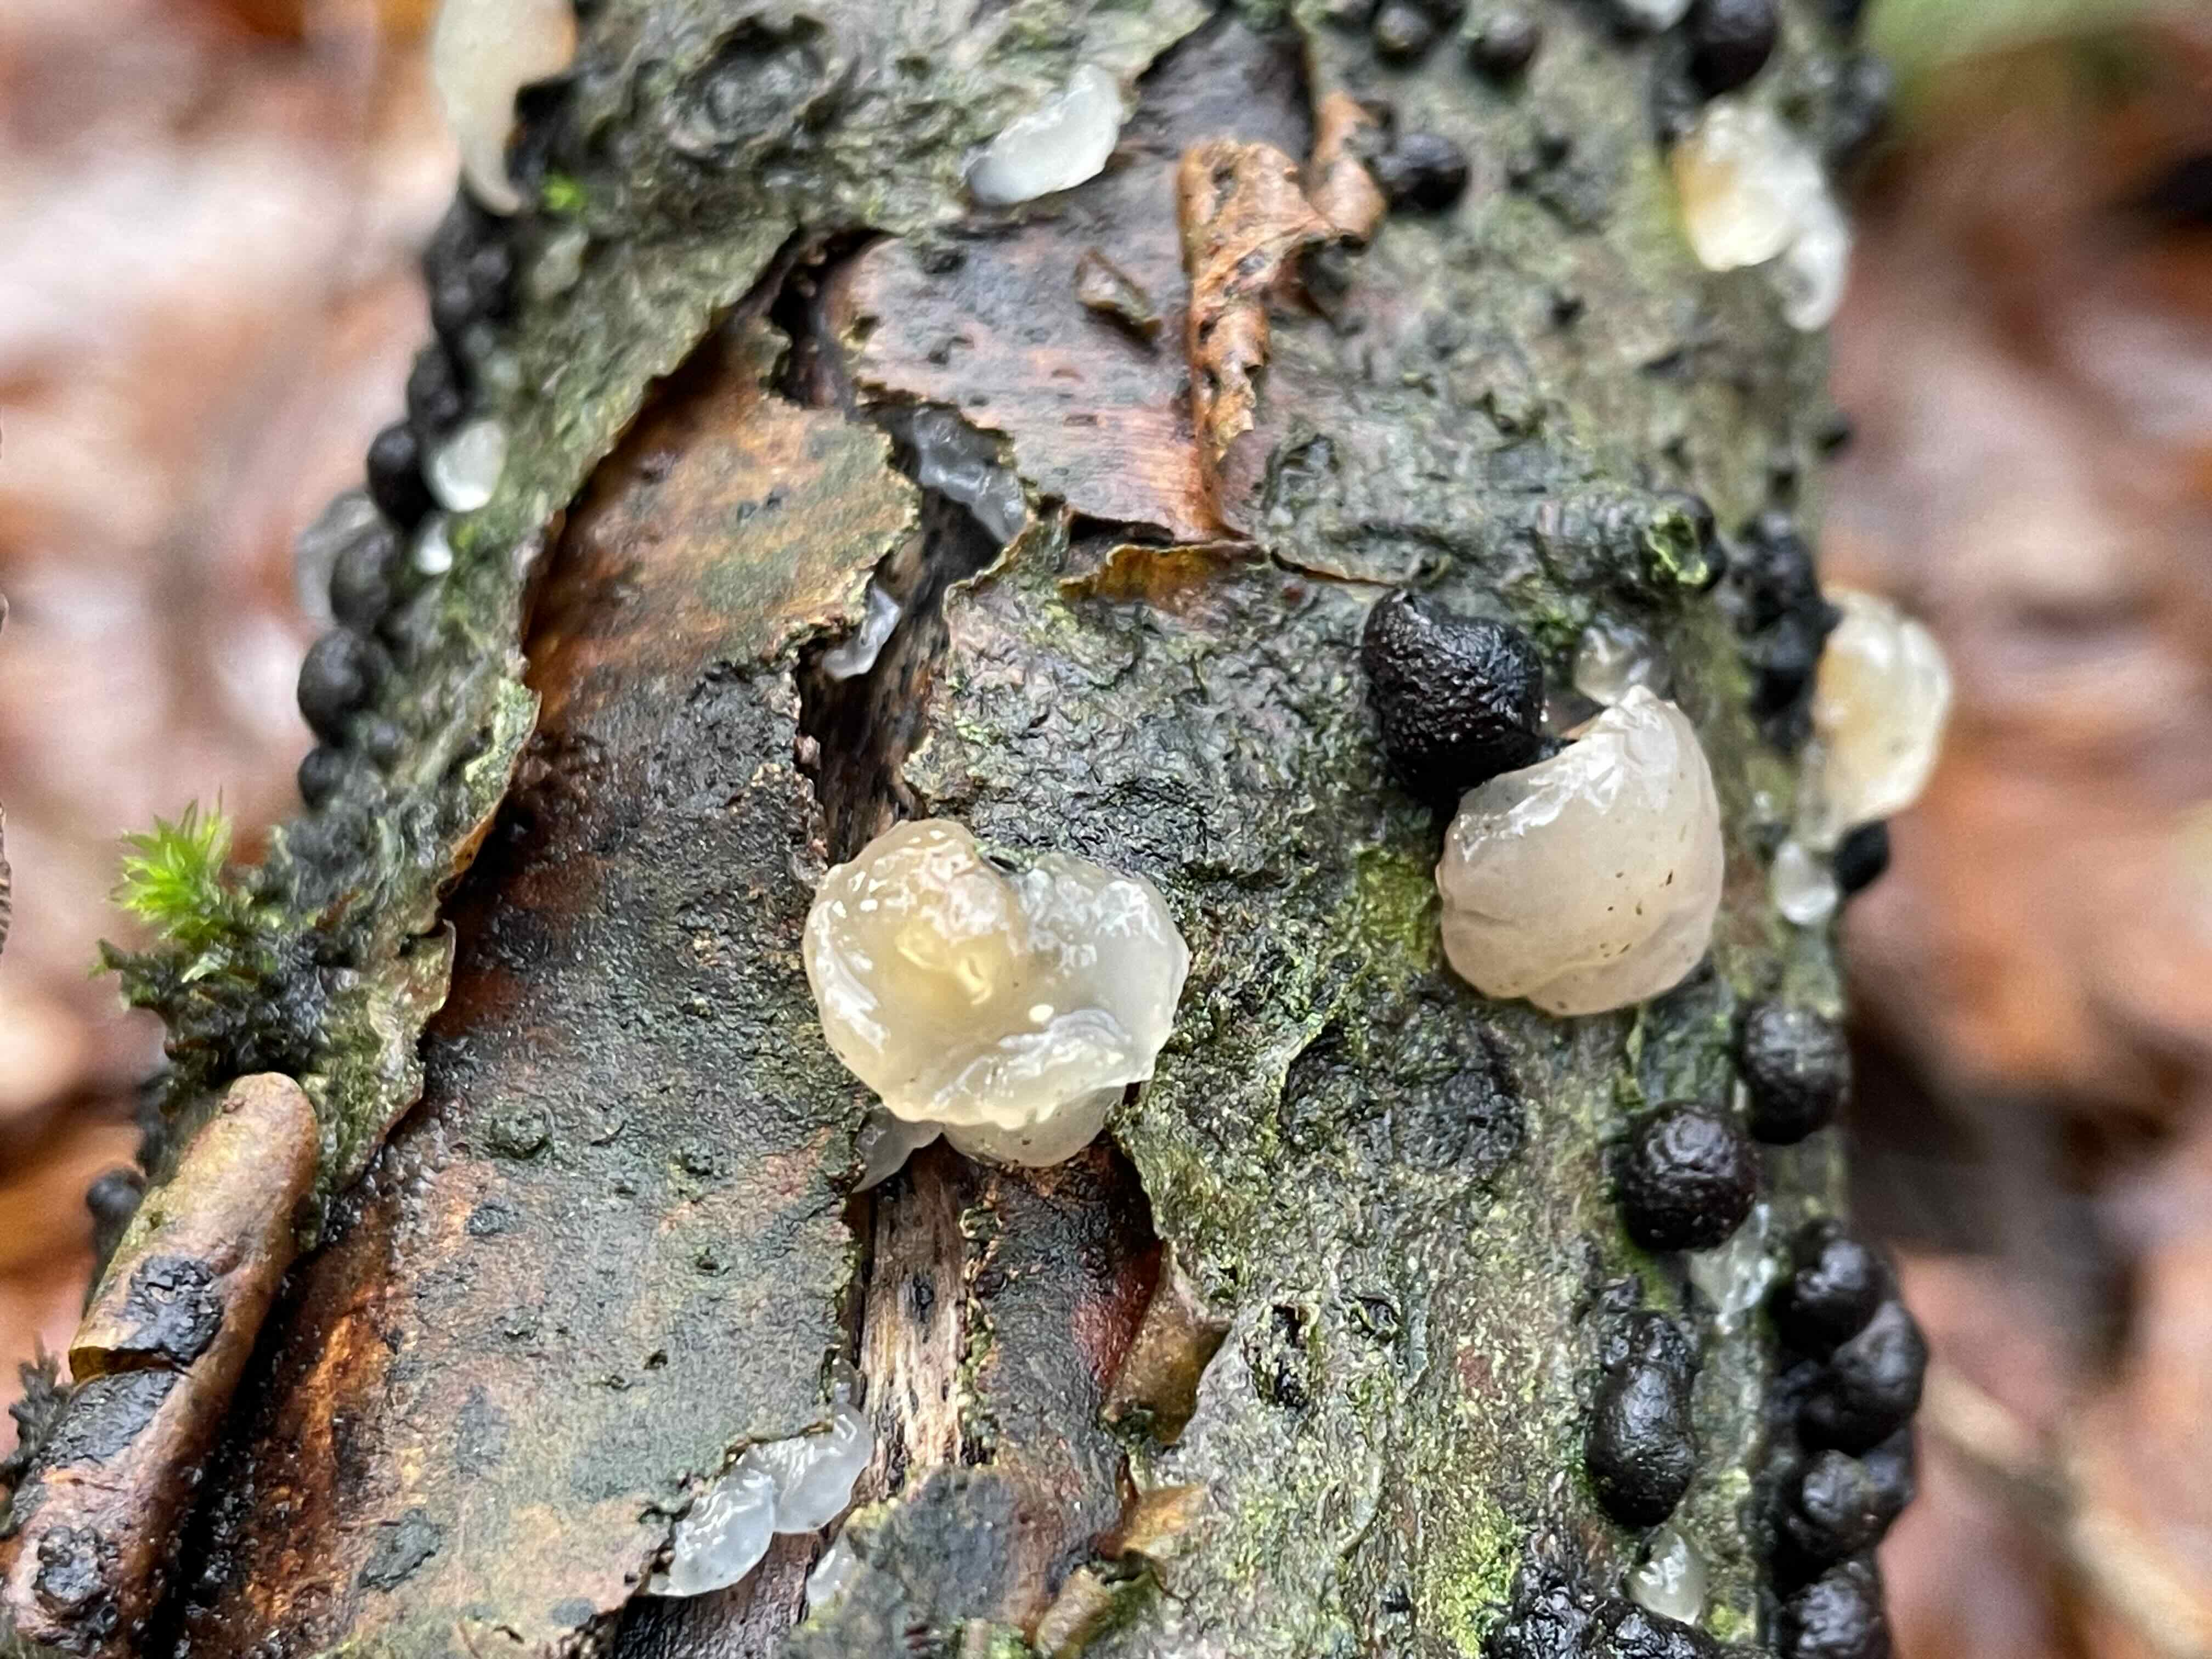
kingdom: Fungi
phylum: Basidiomycota
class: Agaricomycetes
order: Auriculariales
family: Hyaloriaceae
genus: Myxarium
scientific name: Myxarium nucleatum
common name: klar bævretop
